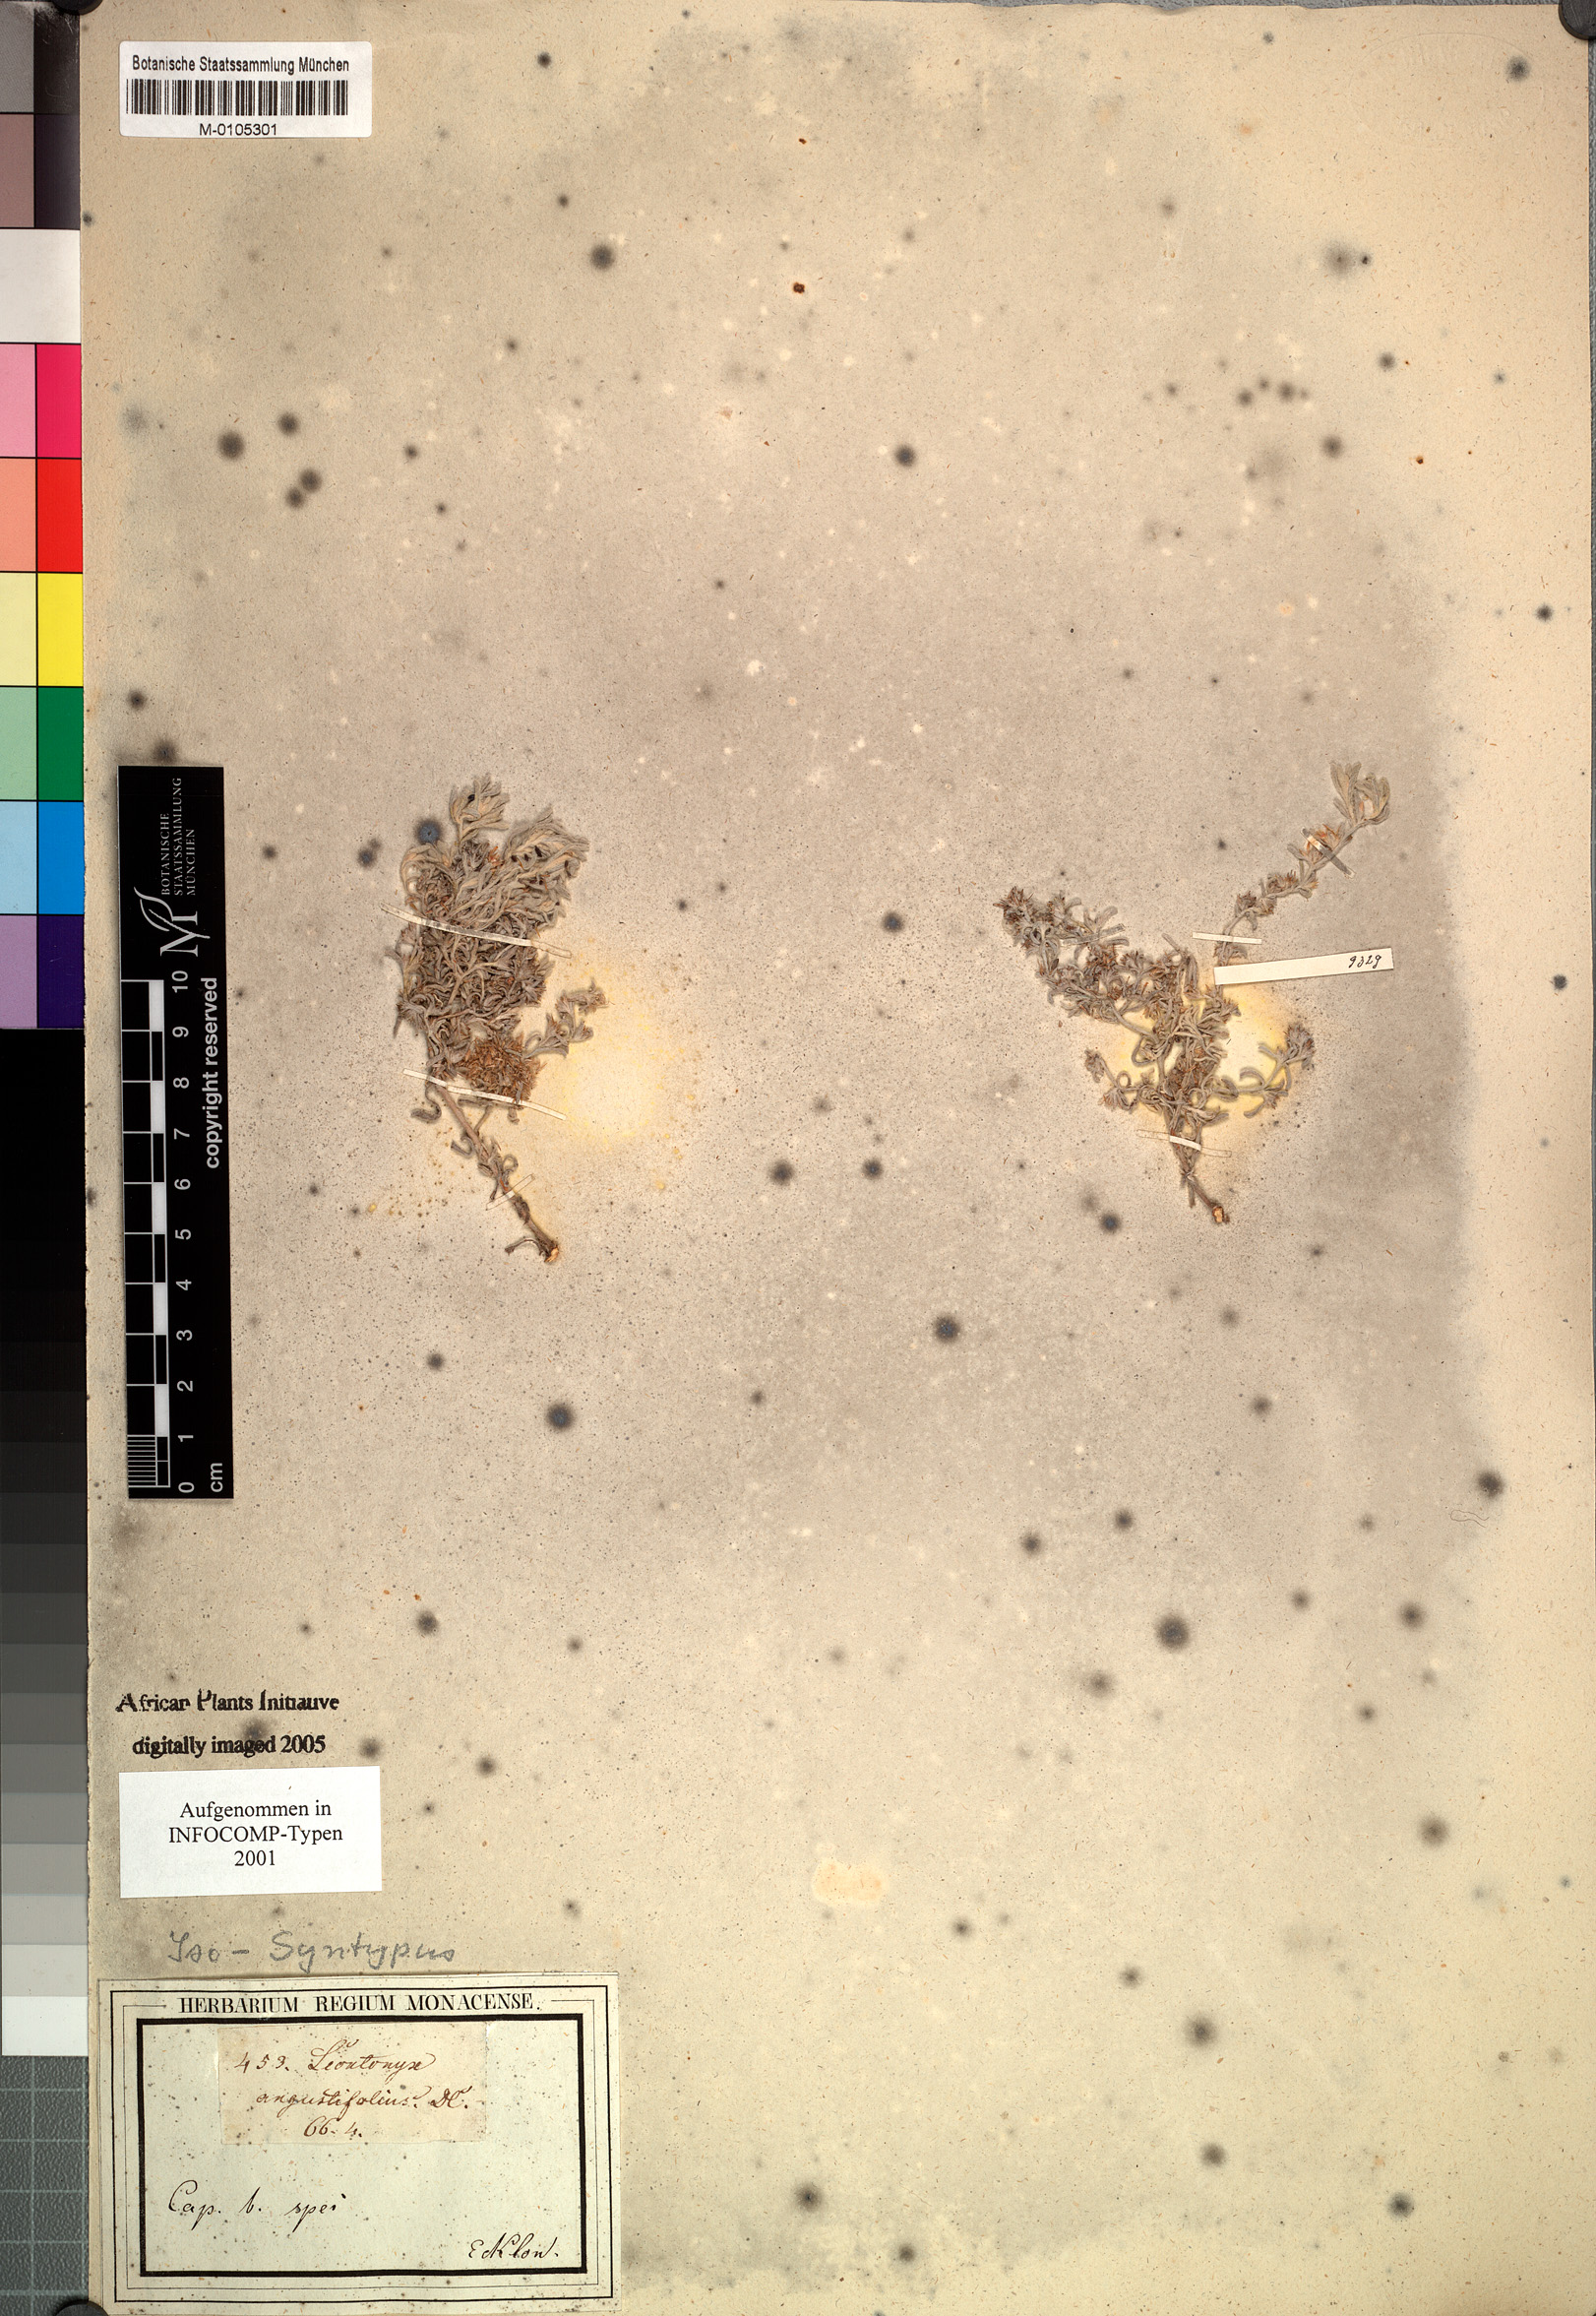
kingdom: Plantae
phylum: Tracheophyta
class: Magnoliopsida
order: Asterales
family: Asteraceae
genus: Helichrysum
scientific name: Helichrysum angustifolium
